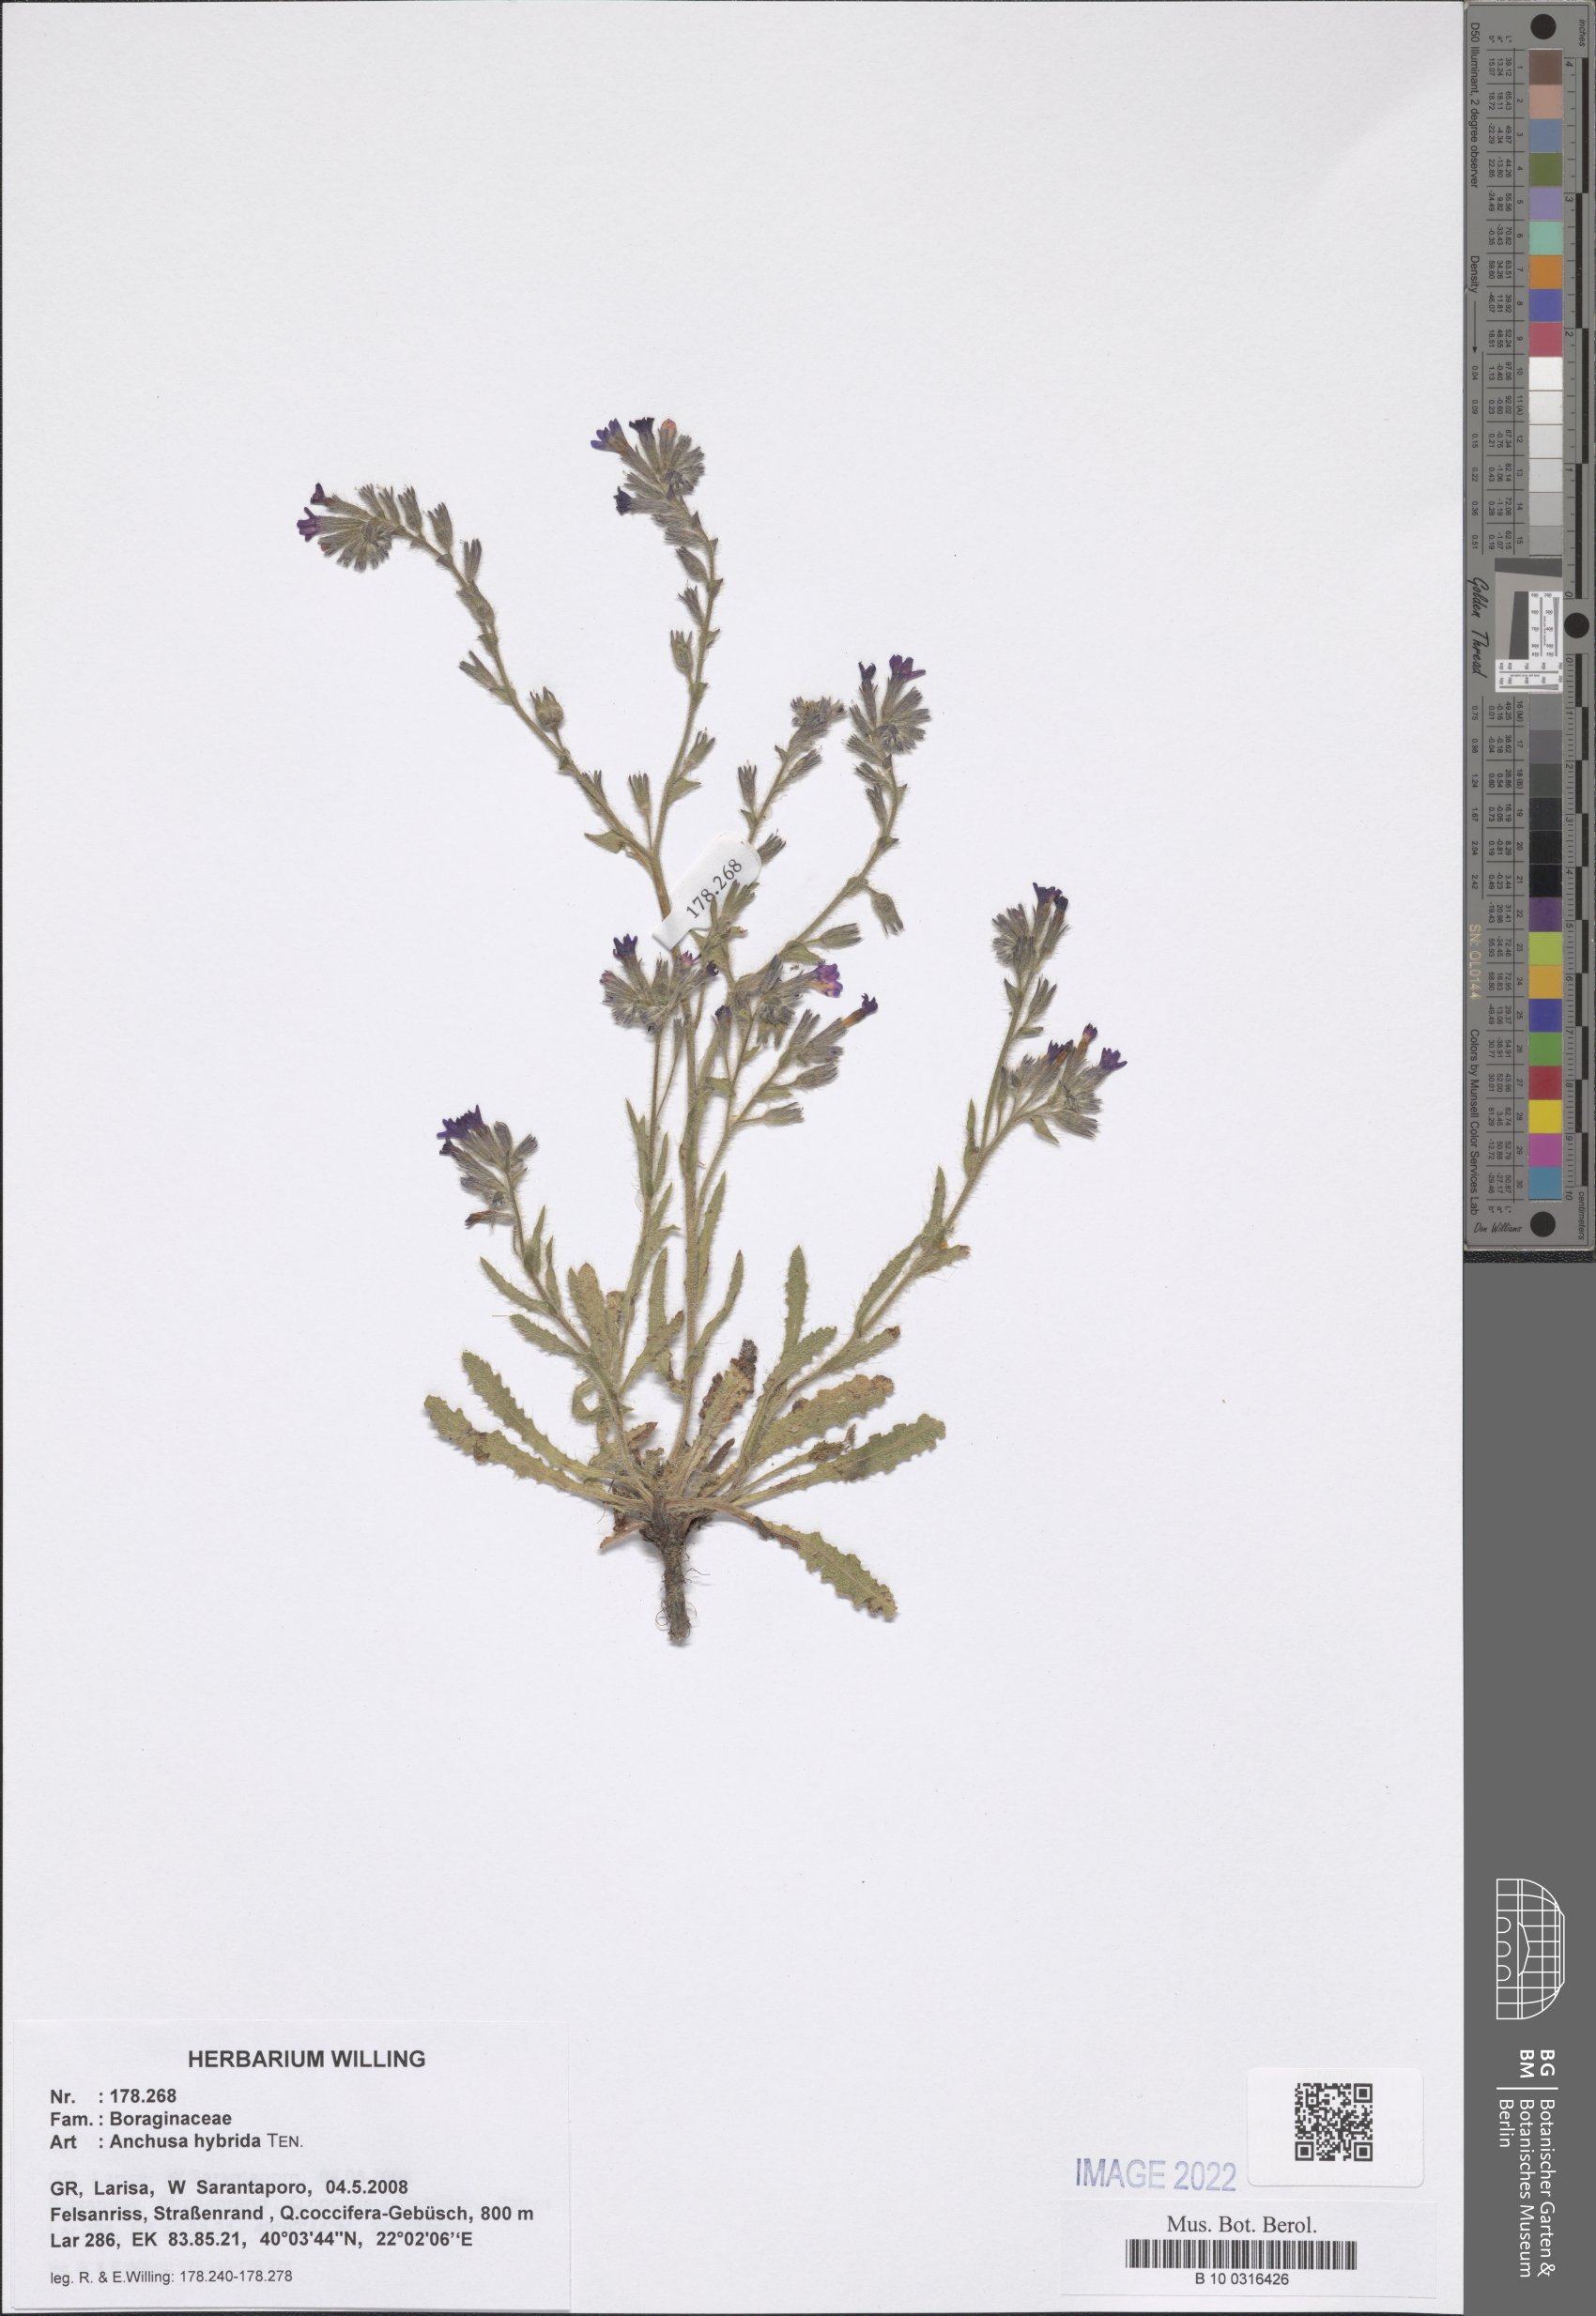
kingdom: Plantae
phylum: Tracheophyta
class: Magnoliopsida
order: Boraginales
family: Boraginaceae
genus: Anchusa
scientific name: Anchusa hybrida
